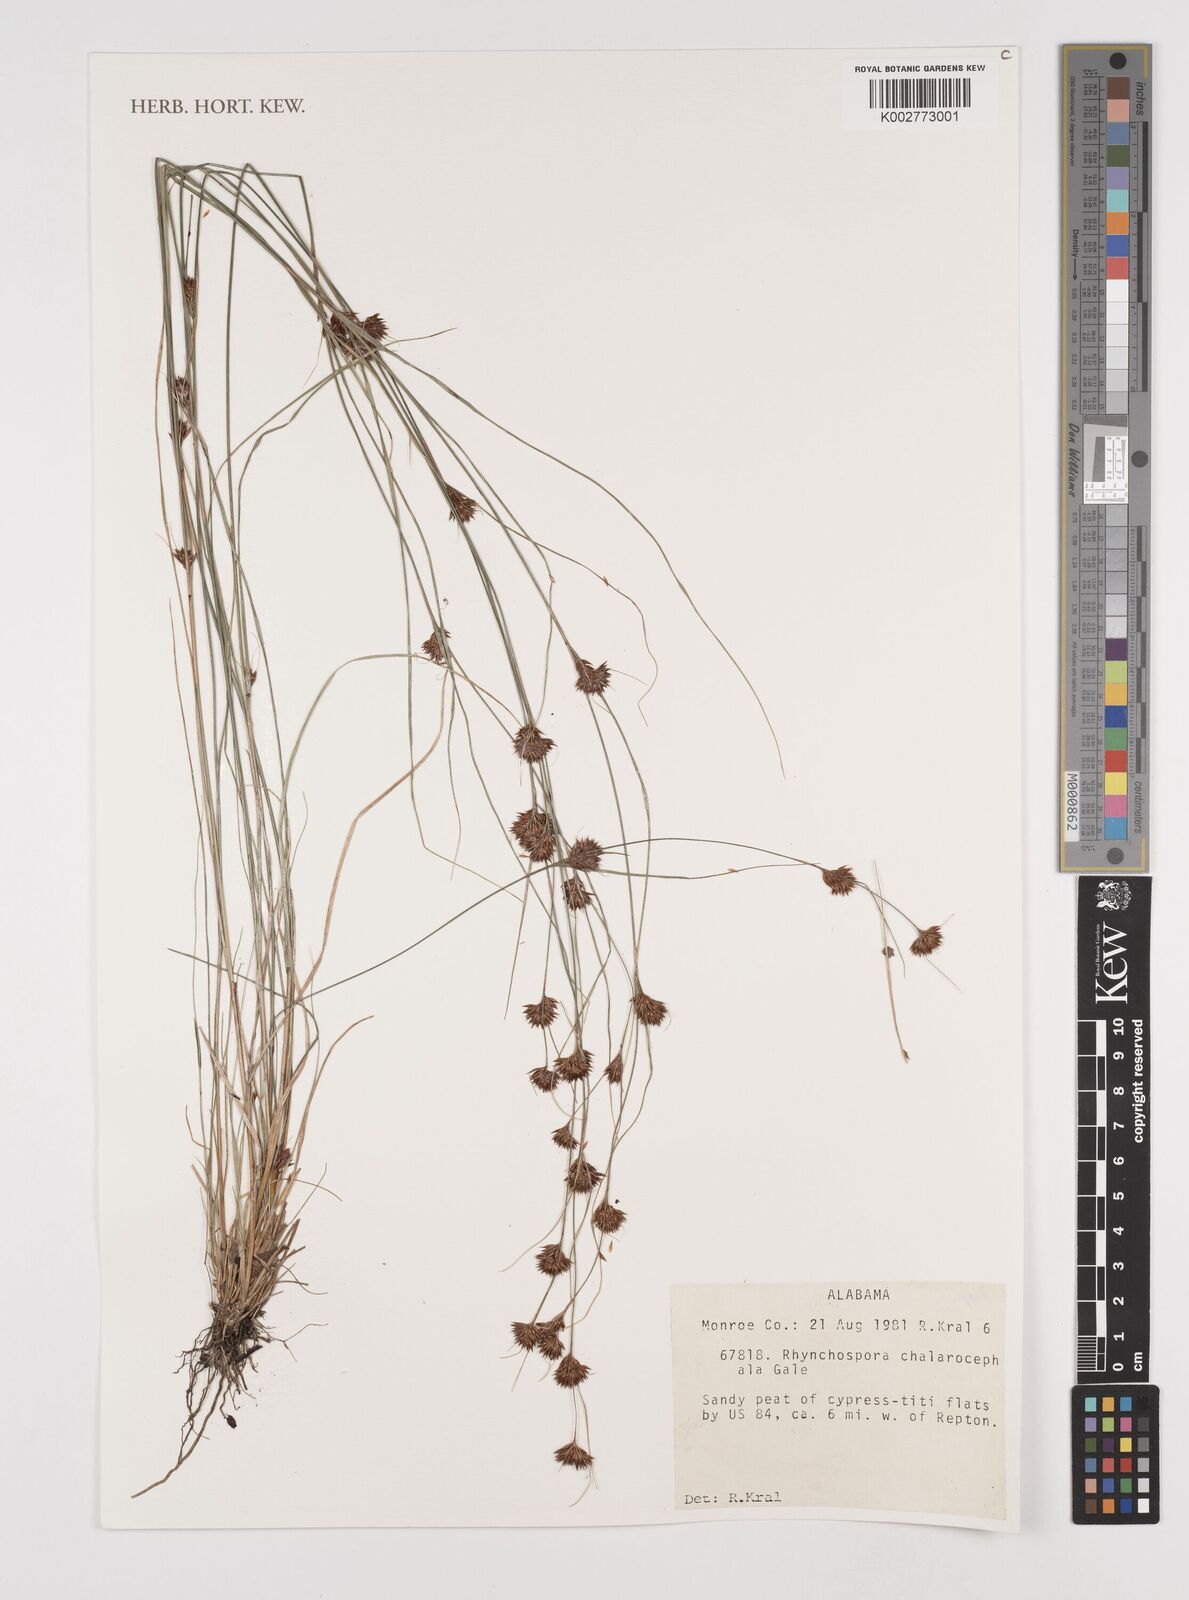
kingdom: Plantae
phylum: Tracheophyta
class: Liliopsida
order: Poales
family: Cyperaceae
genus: Rhynchospora
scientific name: Rhynchospora chalarocephala
